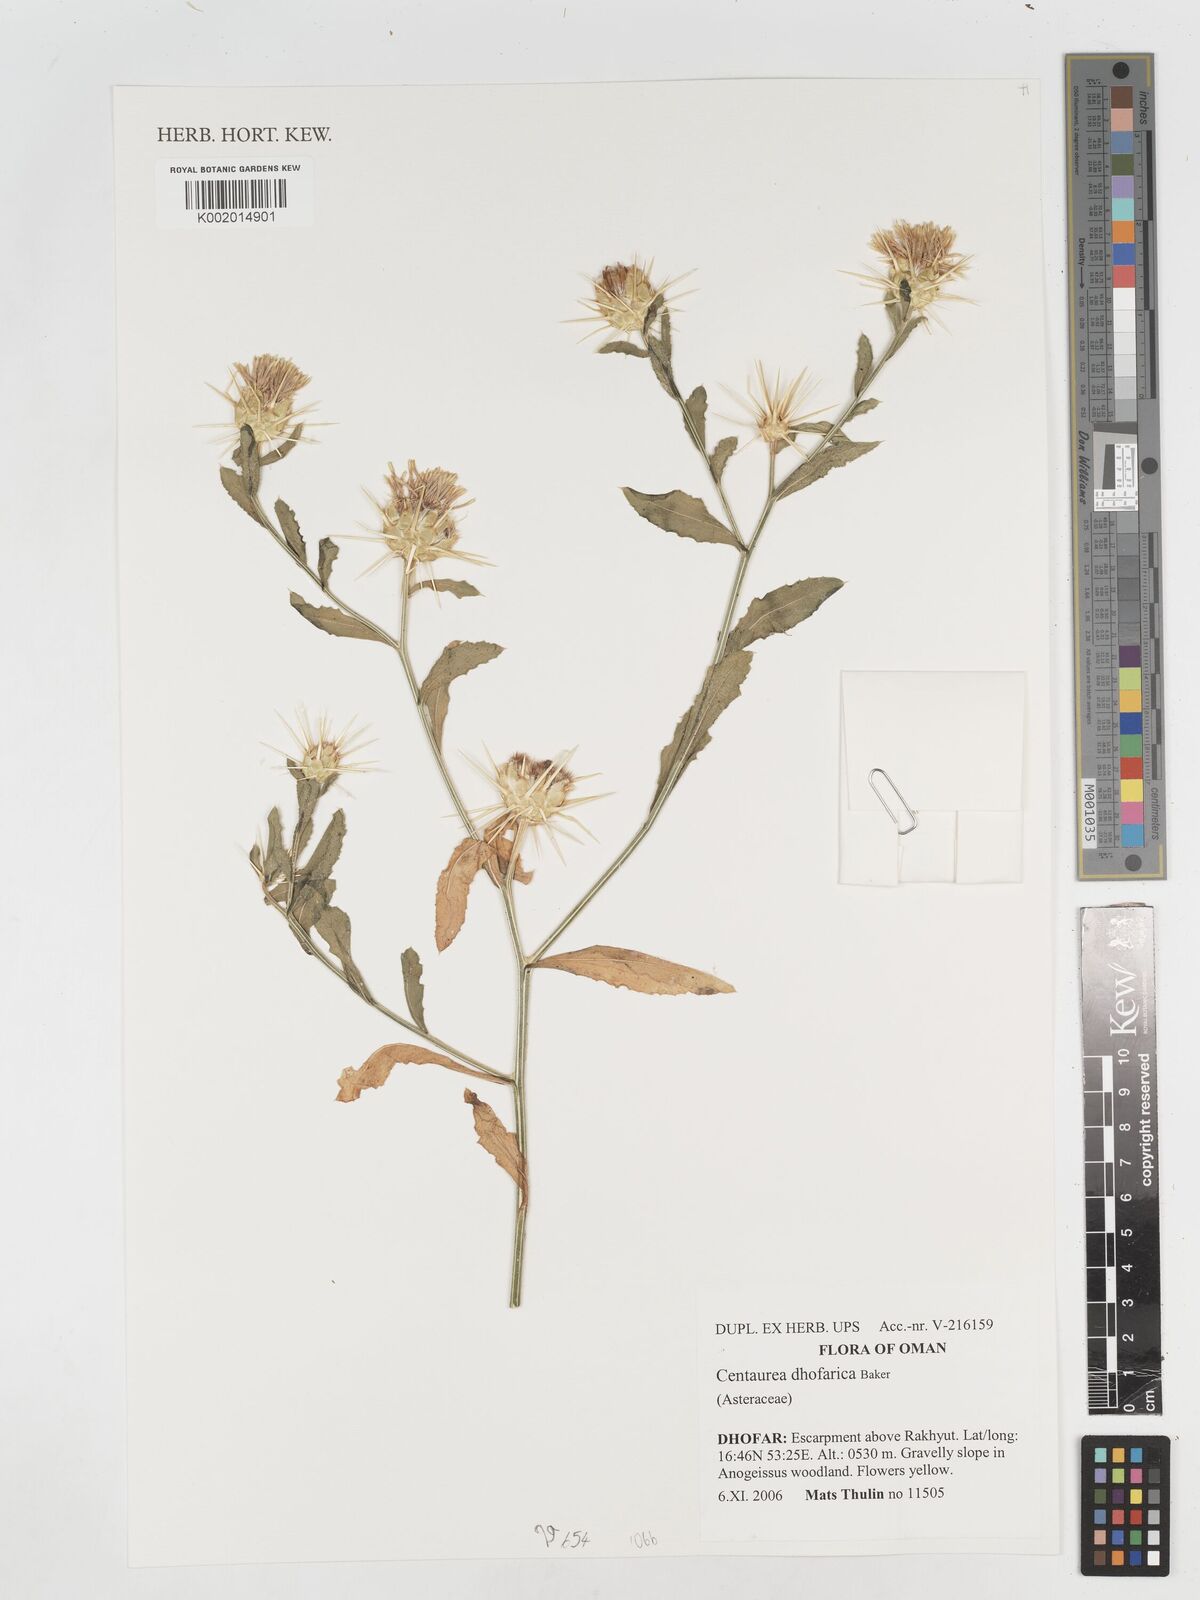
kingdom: Plantae
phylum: Tracheophyta
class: Magnoliopsida
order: Asterales
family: Asteraceae
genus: Centaurea
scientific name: Centaurea dhofarica
